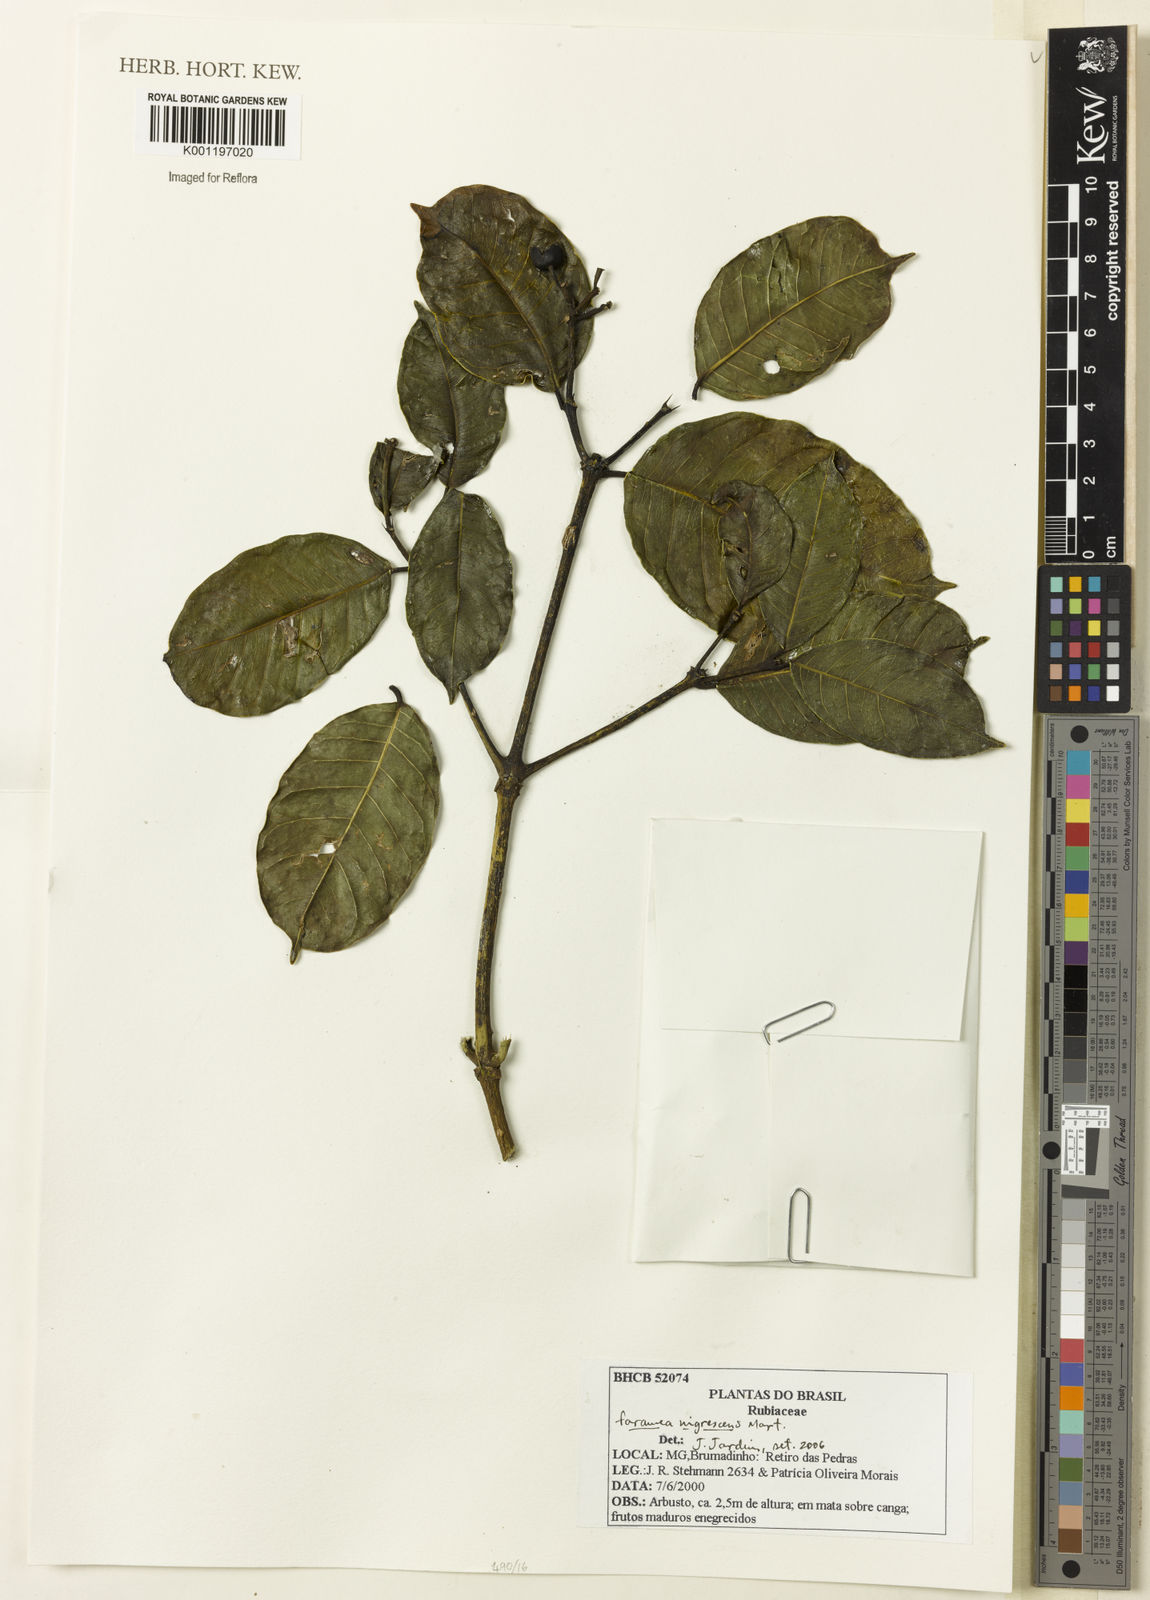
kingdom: Plantae
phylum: Tracheophyta
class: Magnoliopsida
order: Gentianales
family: Rubiaceae
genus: Faramea
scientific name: Faramea nigrescens
